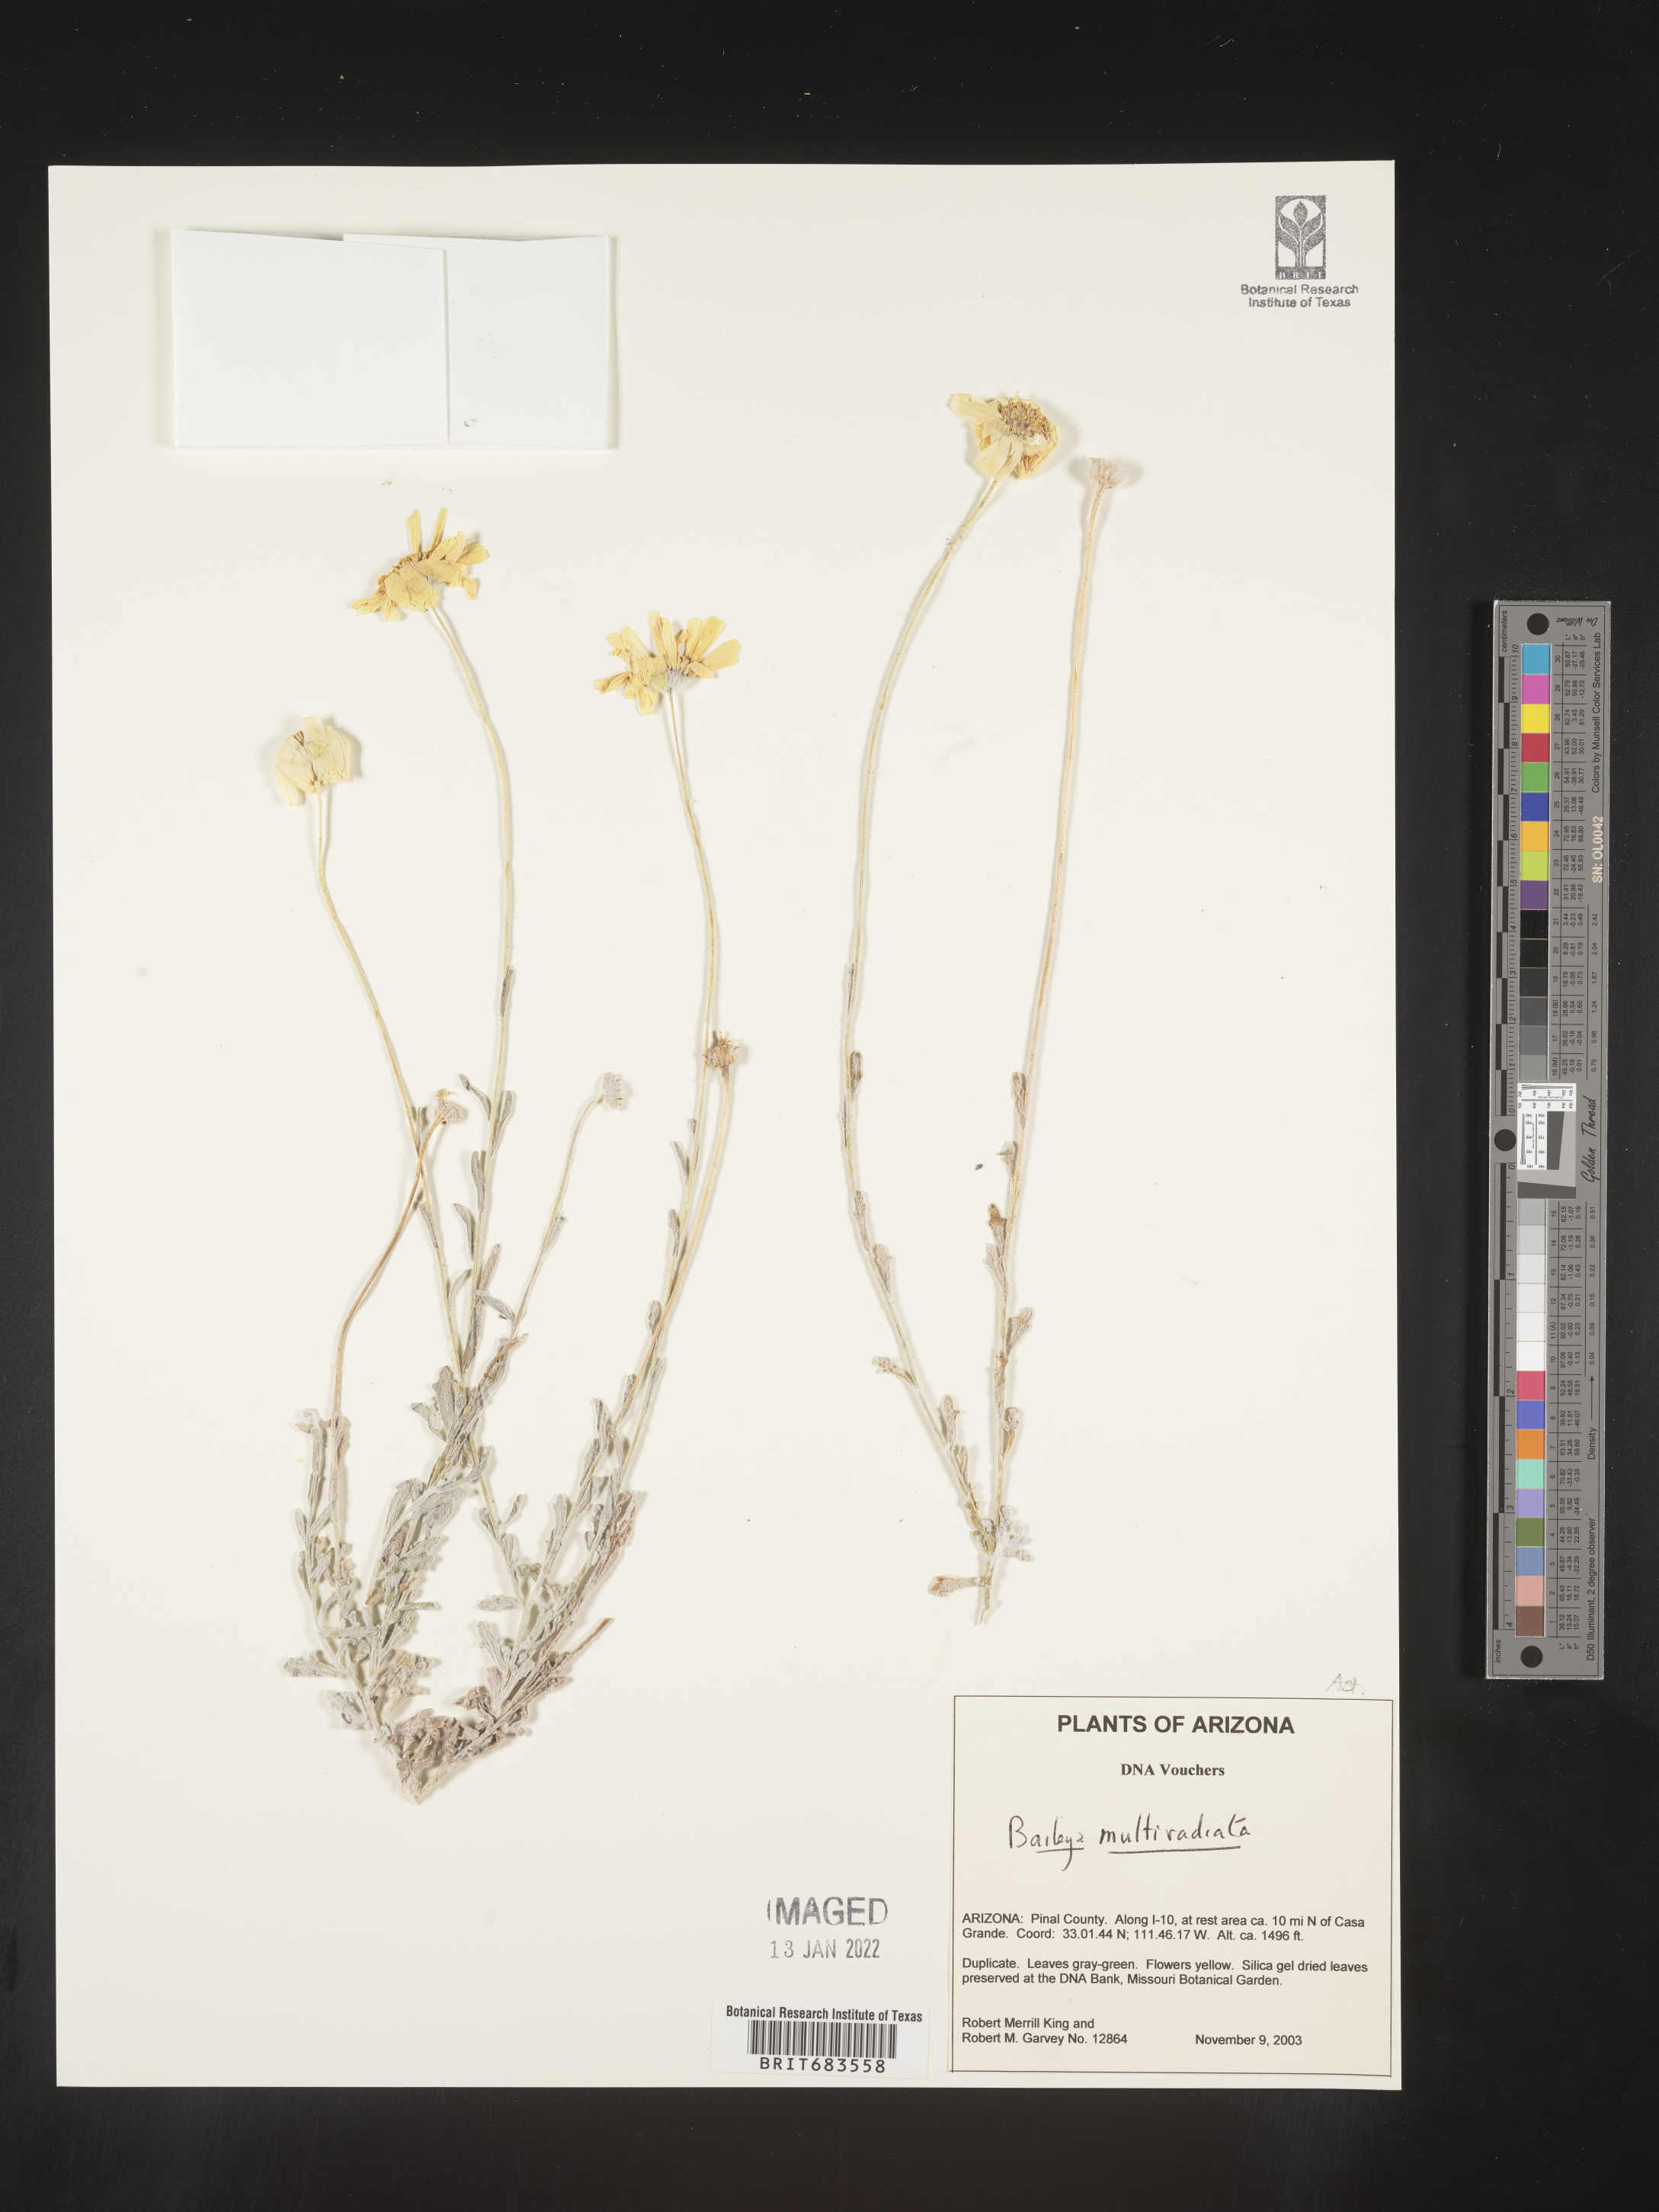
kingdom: Plantae
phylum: Tracheophyta
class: Magnoliopsida
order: Asterales
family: Asteraceae
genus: Baileya
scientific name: Baileya multiradiata
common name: Desert-marigold
